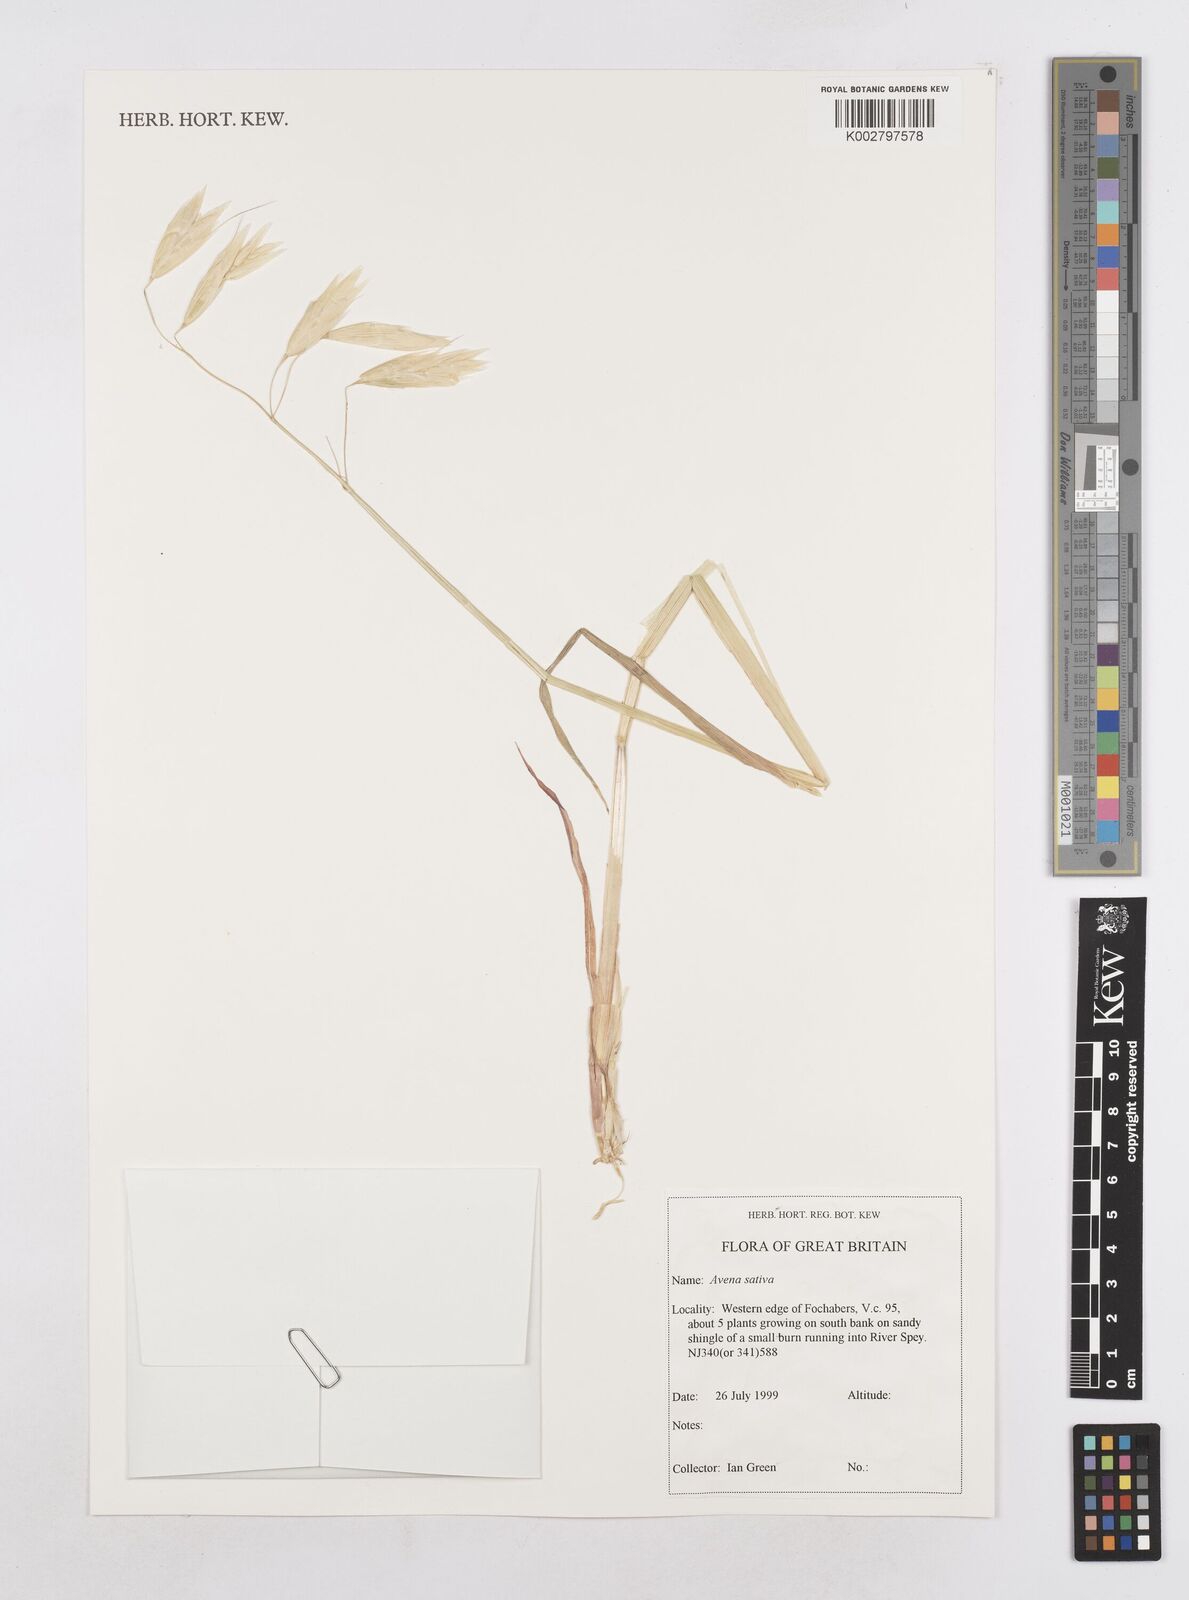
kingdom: Plantae
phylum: Tracheophyta
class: Liliopsida
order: Poales
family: Poaceae
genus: Avena
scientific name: Avena sativa
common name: Oat
